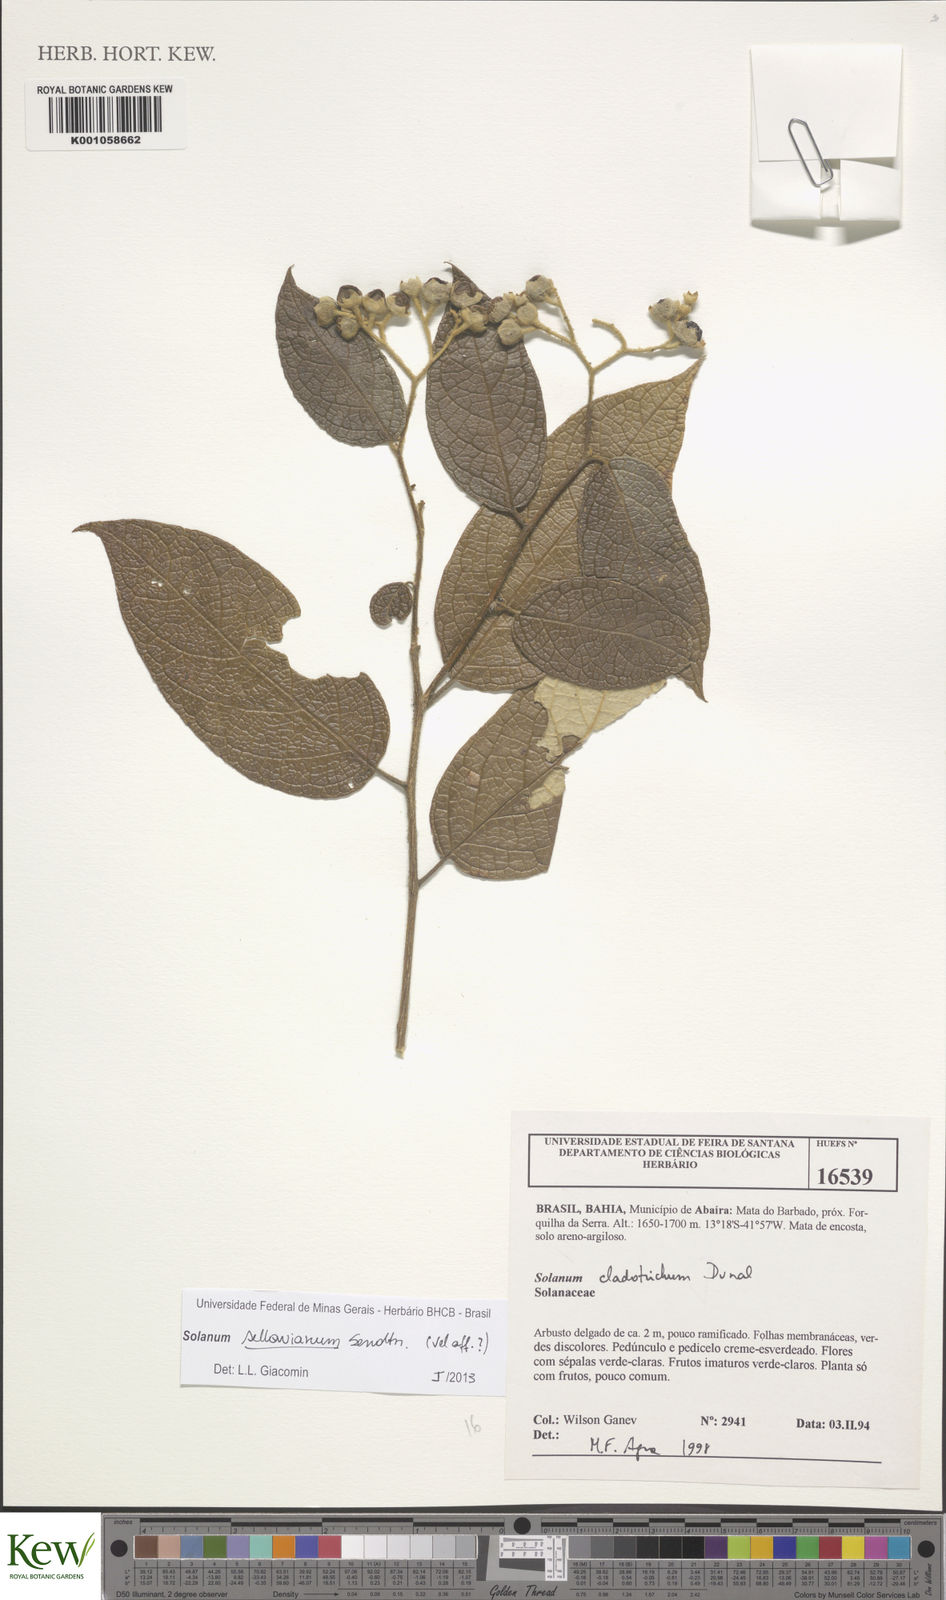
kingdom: Plantae
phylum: Tracheophyta
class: Magnoliopsida
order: Solanales
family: Solanaceae
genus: Solanum
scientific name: Solanum sellowianum
